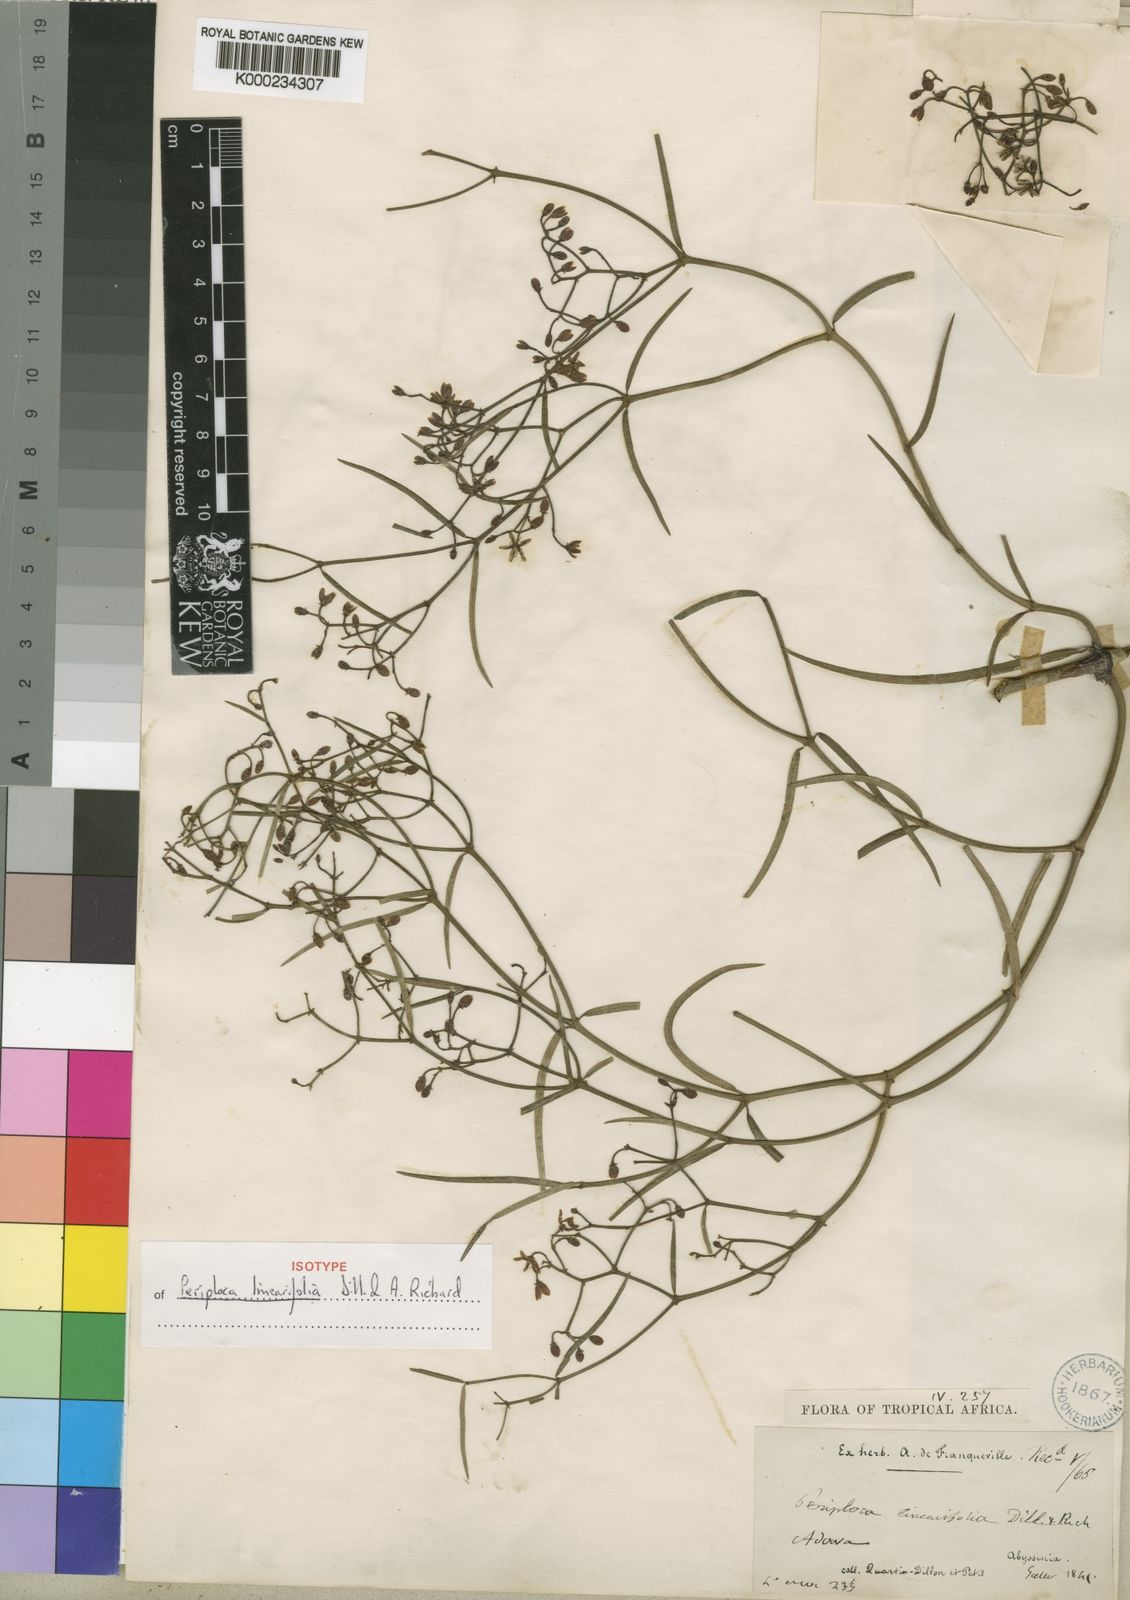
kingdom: Plantae
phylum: Tracheophyta
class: Magnoliopsida
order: Gentianales
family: Apocynaceae
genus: Periploca
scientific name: Periploca linearifolia
